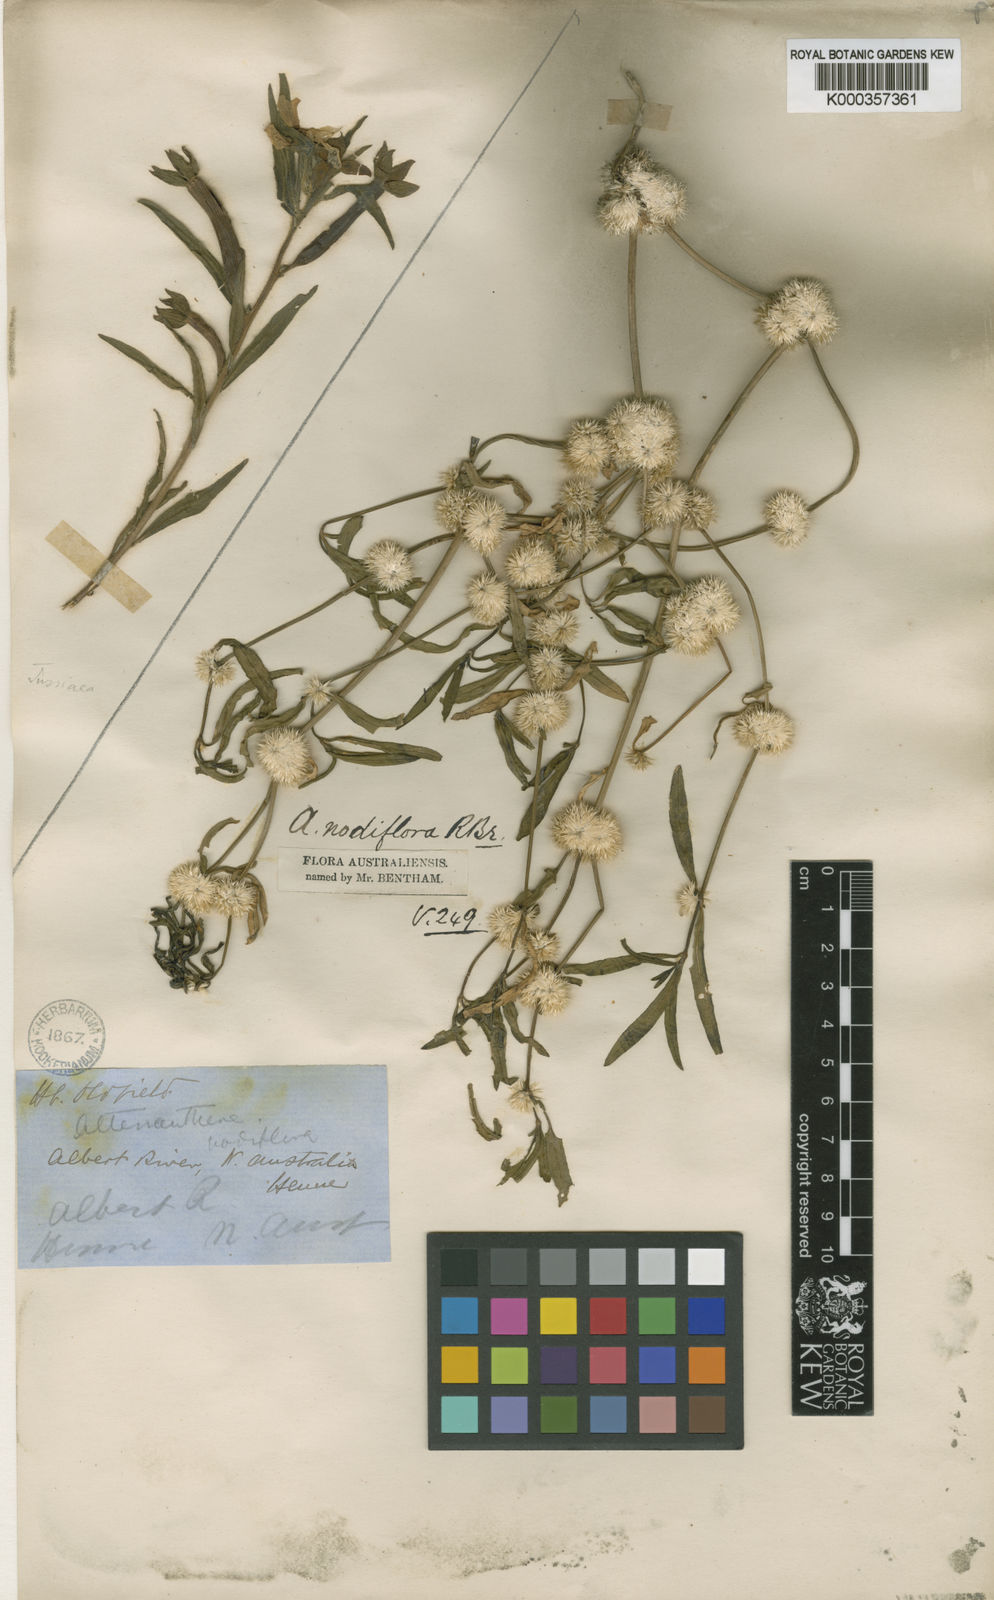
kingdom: Plantae
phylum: Tracheophyta
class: Magnoliopsida
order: Caryophyllales
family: Amaranthaceae
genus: Alternanthera
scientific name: Alternanthera sessilis
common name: Sessile joyweed
